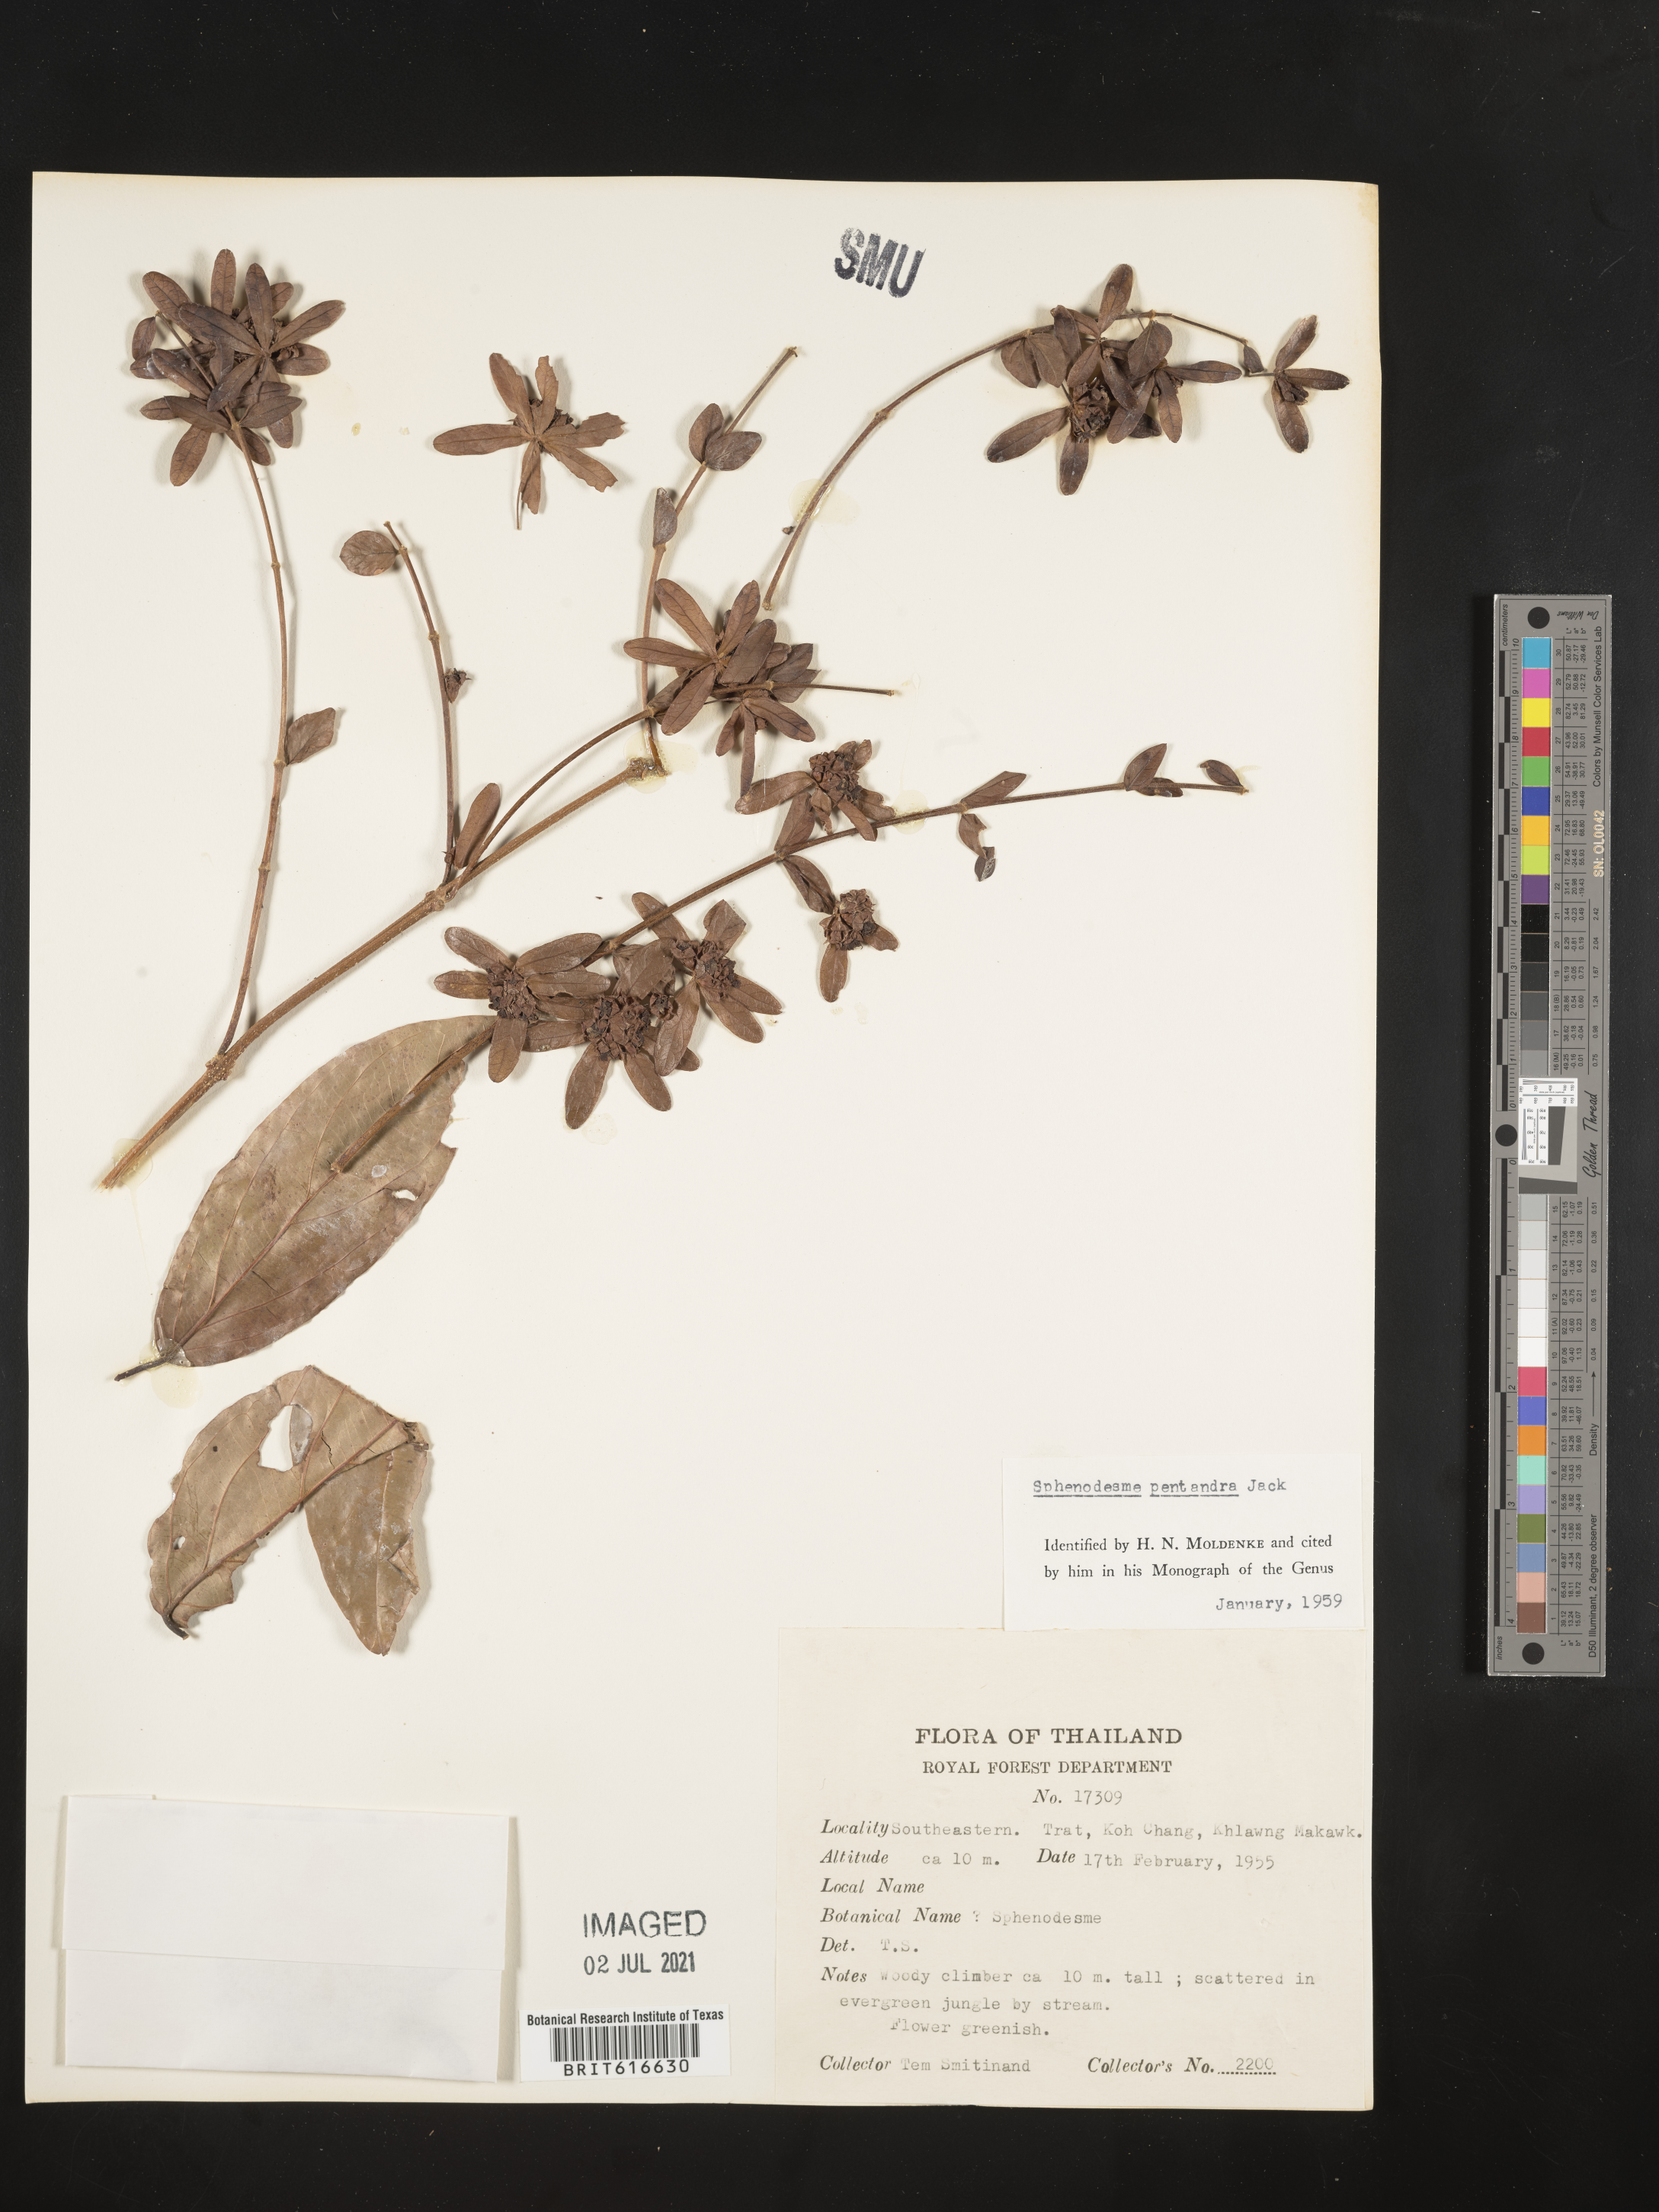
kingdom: Plantae
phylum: Tracheophyta
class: Magnoliopsida
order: Lamiales
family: Lamiaceae
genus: Sphenodesme
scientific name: Sphenodesme pentandra
